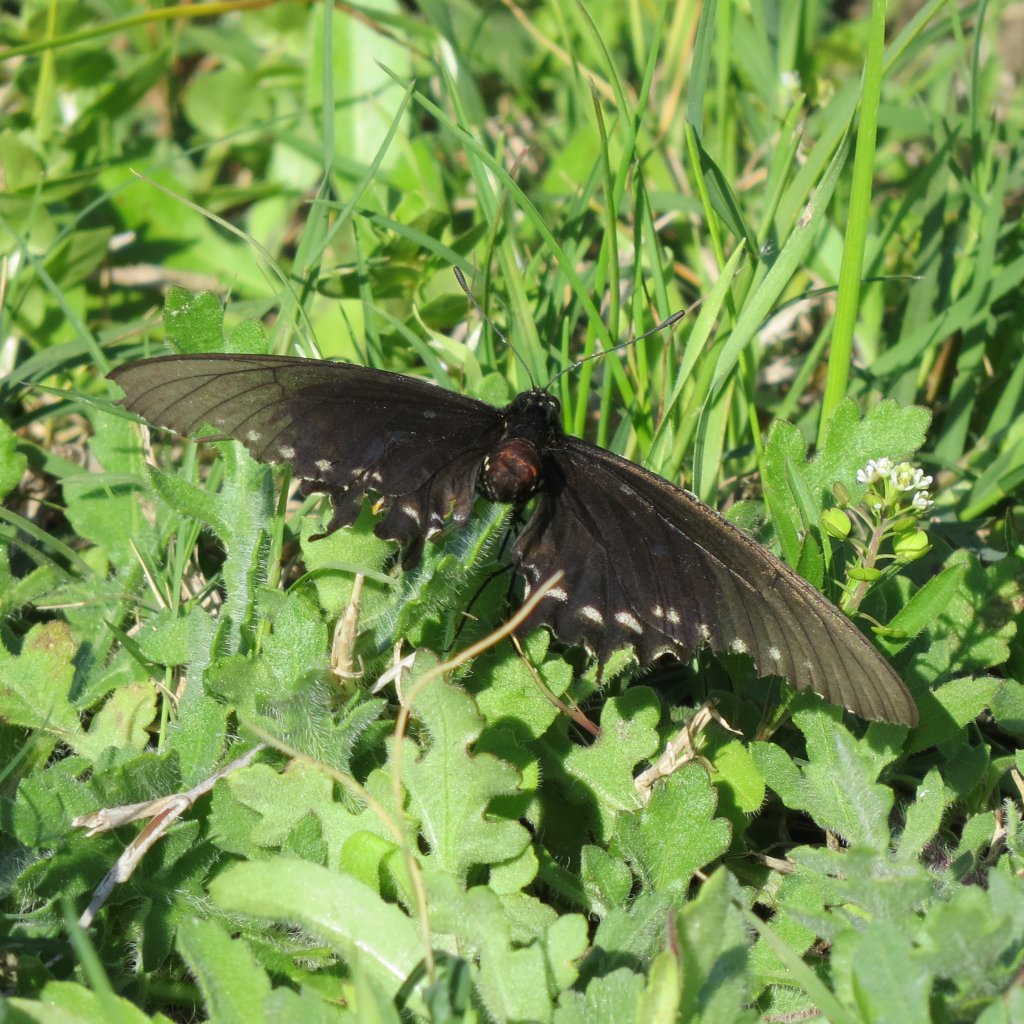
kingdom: Animalia
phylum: Arthropoda
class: Insecta
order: Lepidoptera
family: Papilionidae
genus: Battus
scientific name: Battus philenor
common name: Pipevine Swallowtail
